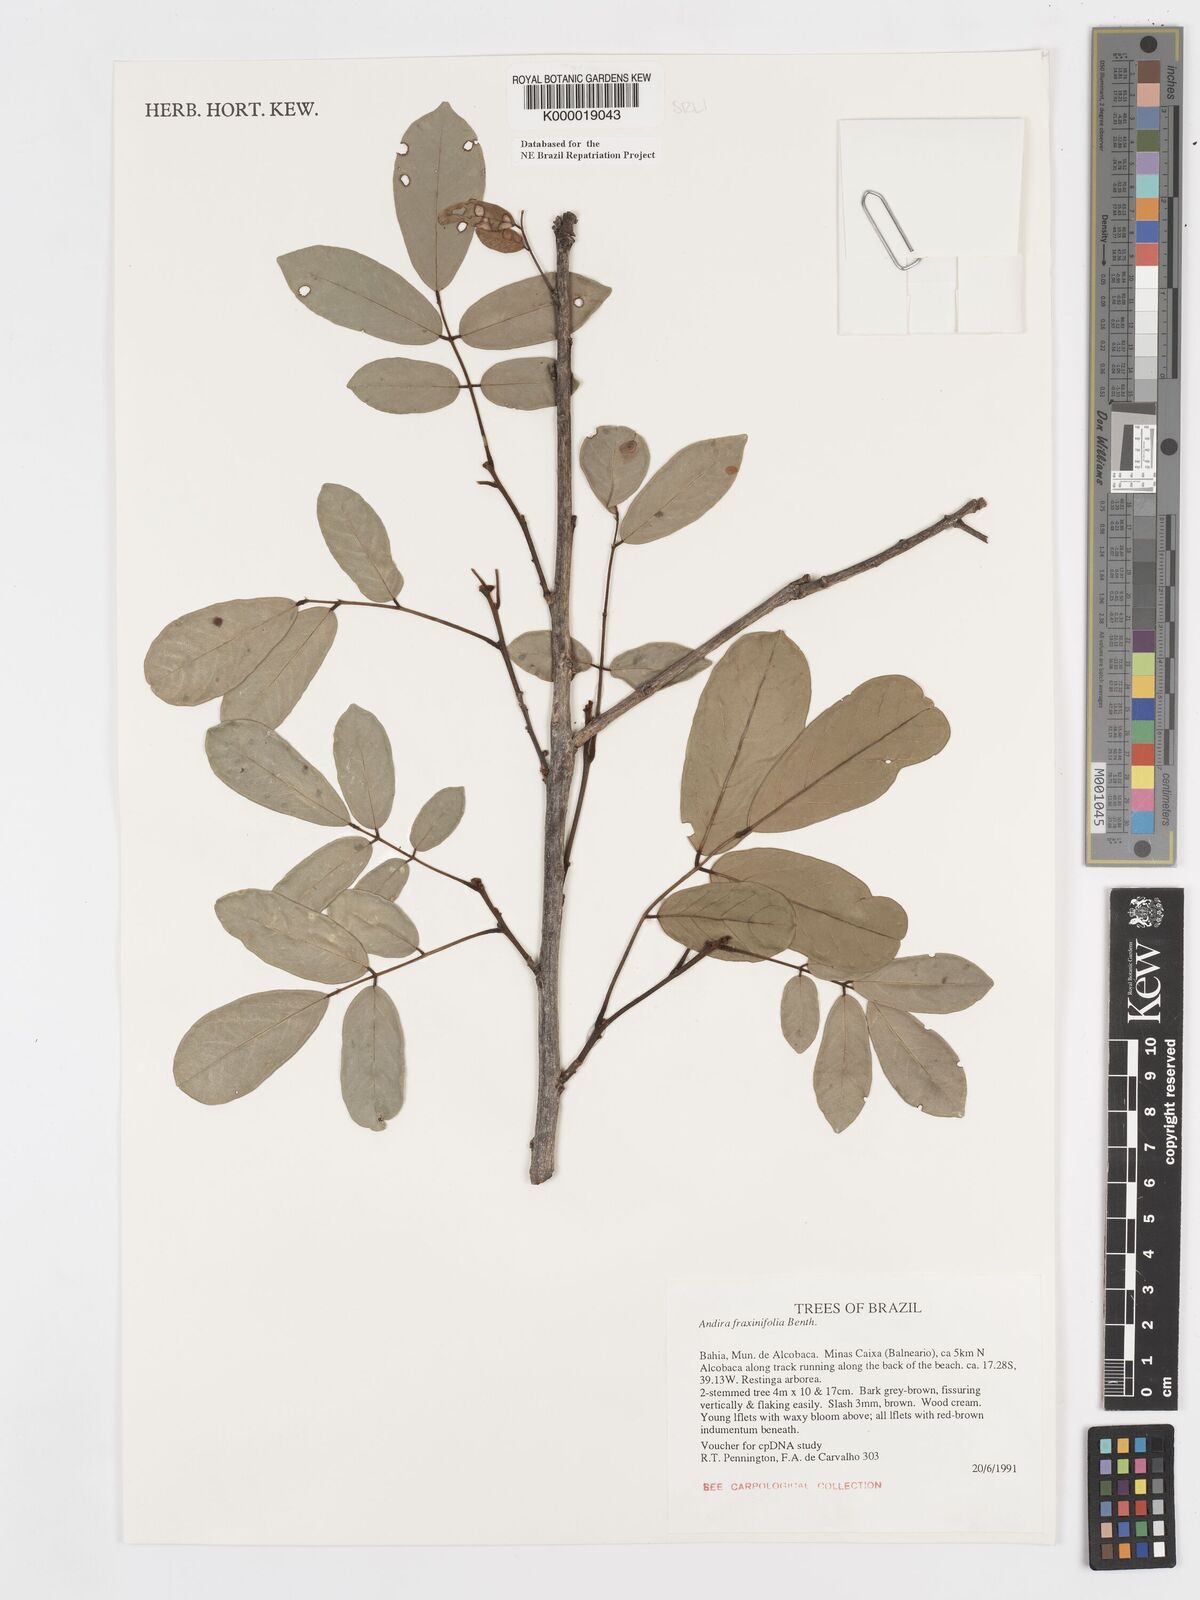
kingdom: Plantae
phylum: Tracheophyta
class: Magnoliopsida
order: Fabales
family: Fabaceae
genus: Andira
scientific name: Andira fraxinifolia
